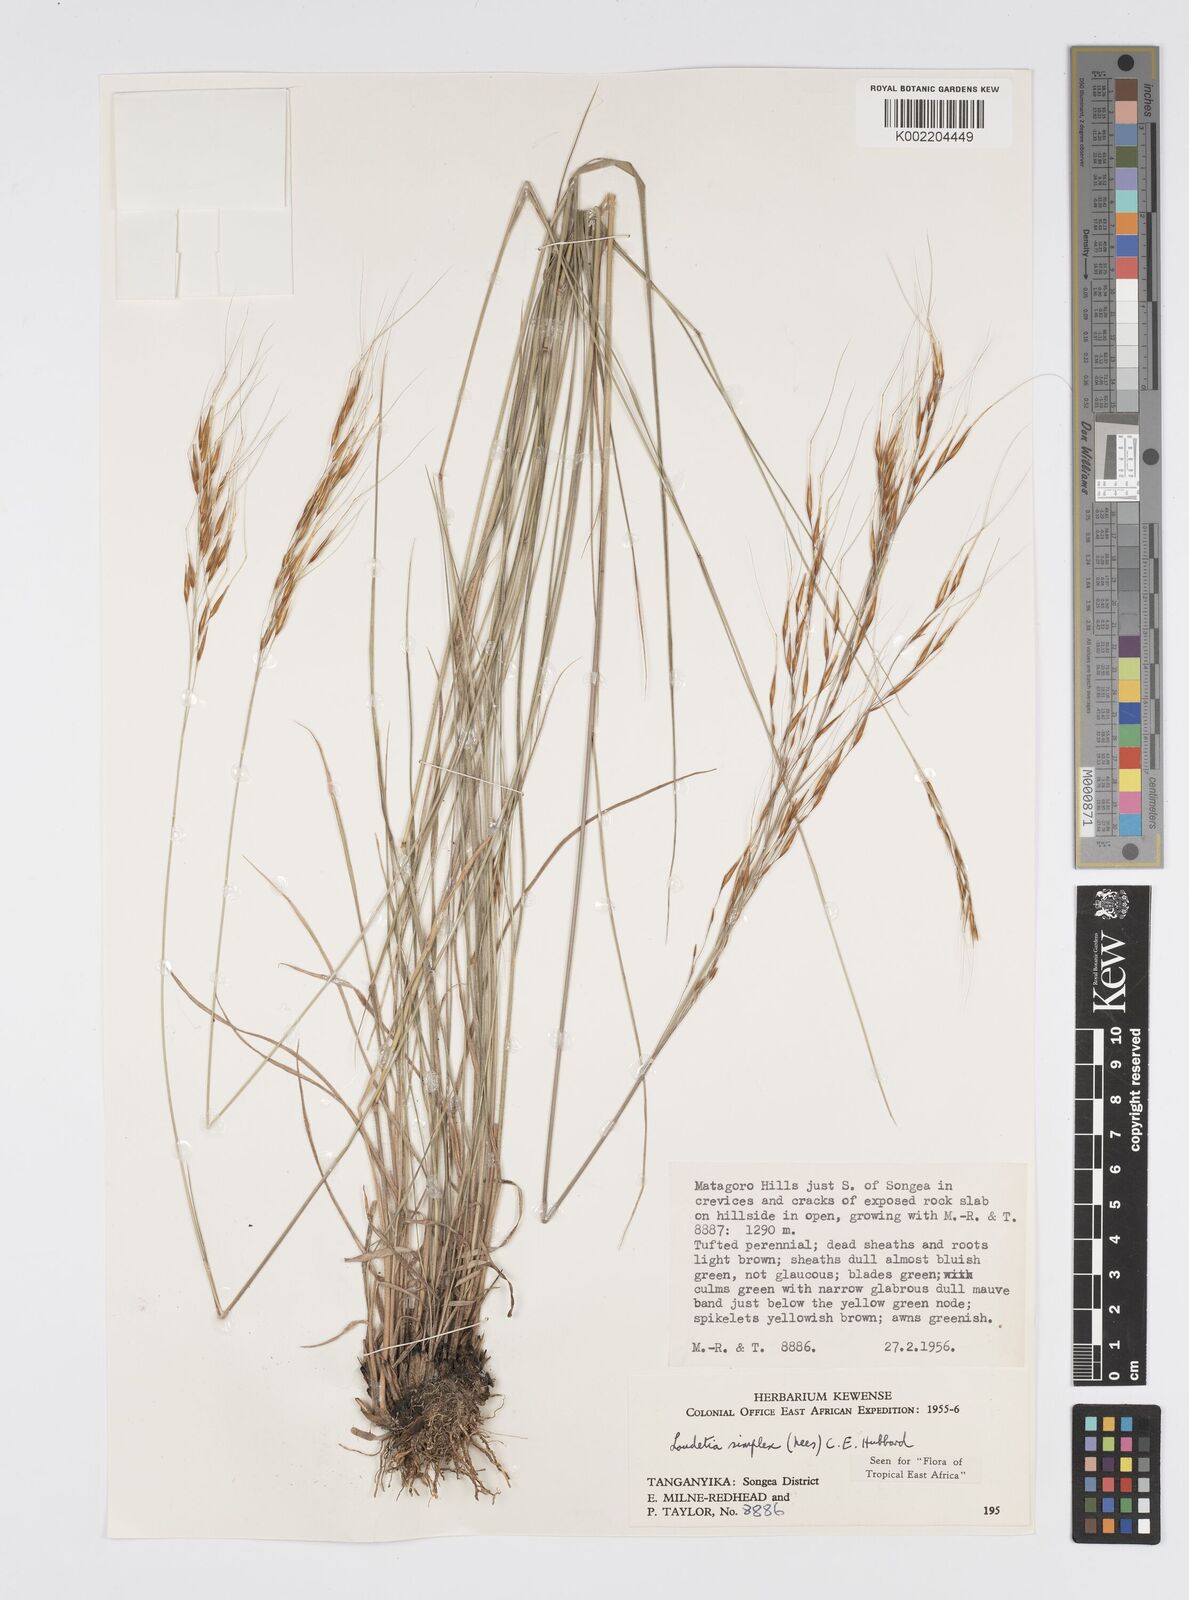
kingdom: Plantae
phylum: Tracheophyta
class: Liliopsida
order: Poales
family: Poaceae
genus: Loudetia
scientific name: Loudetia simplex
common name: Common russet grass
